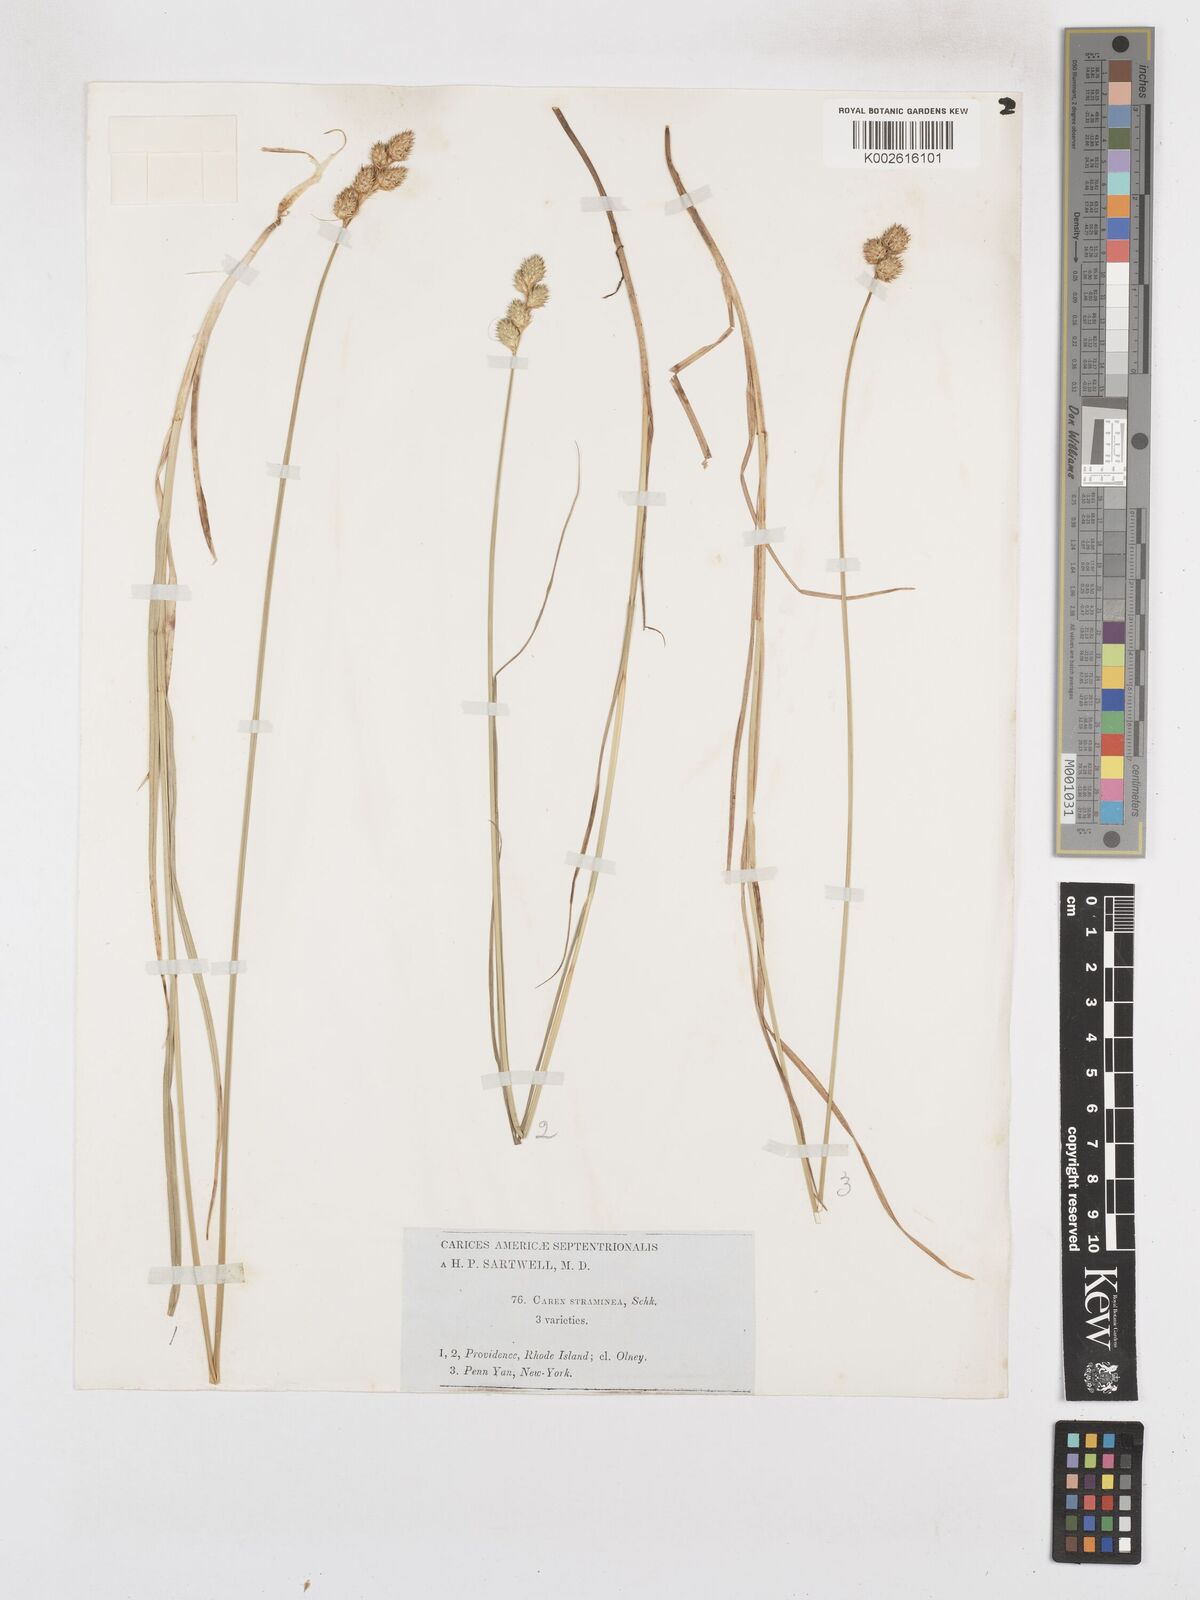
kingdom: Plantae
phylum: Tracheophyta
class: Liliopsida
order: Poales
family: Cyperaceae
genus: Carex
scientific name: Carex brevior
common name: Brevior sedge
